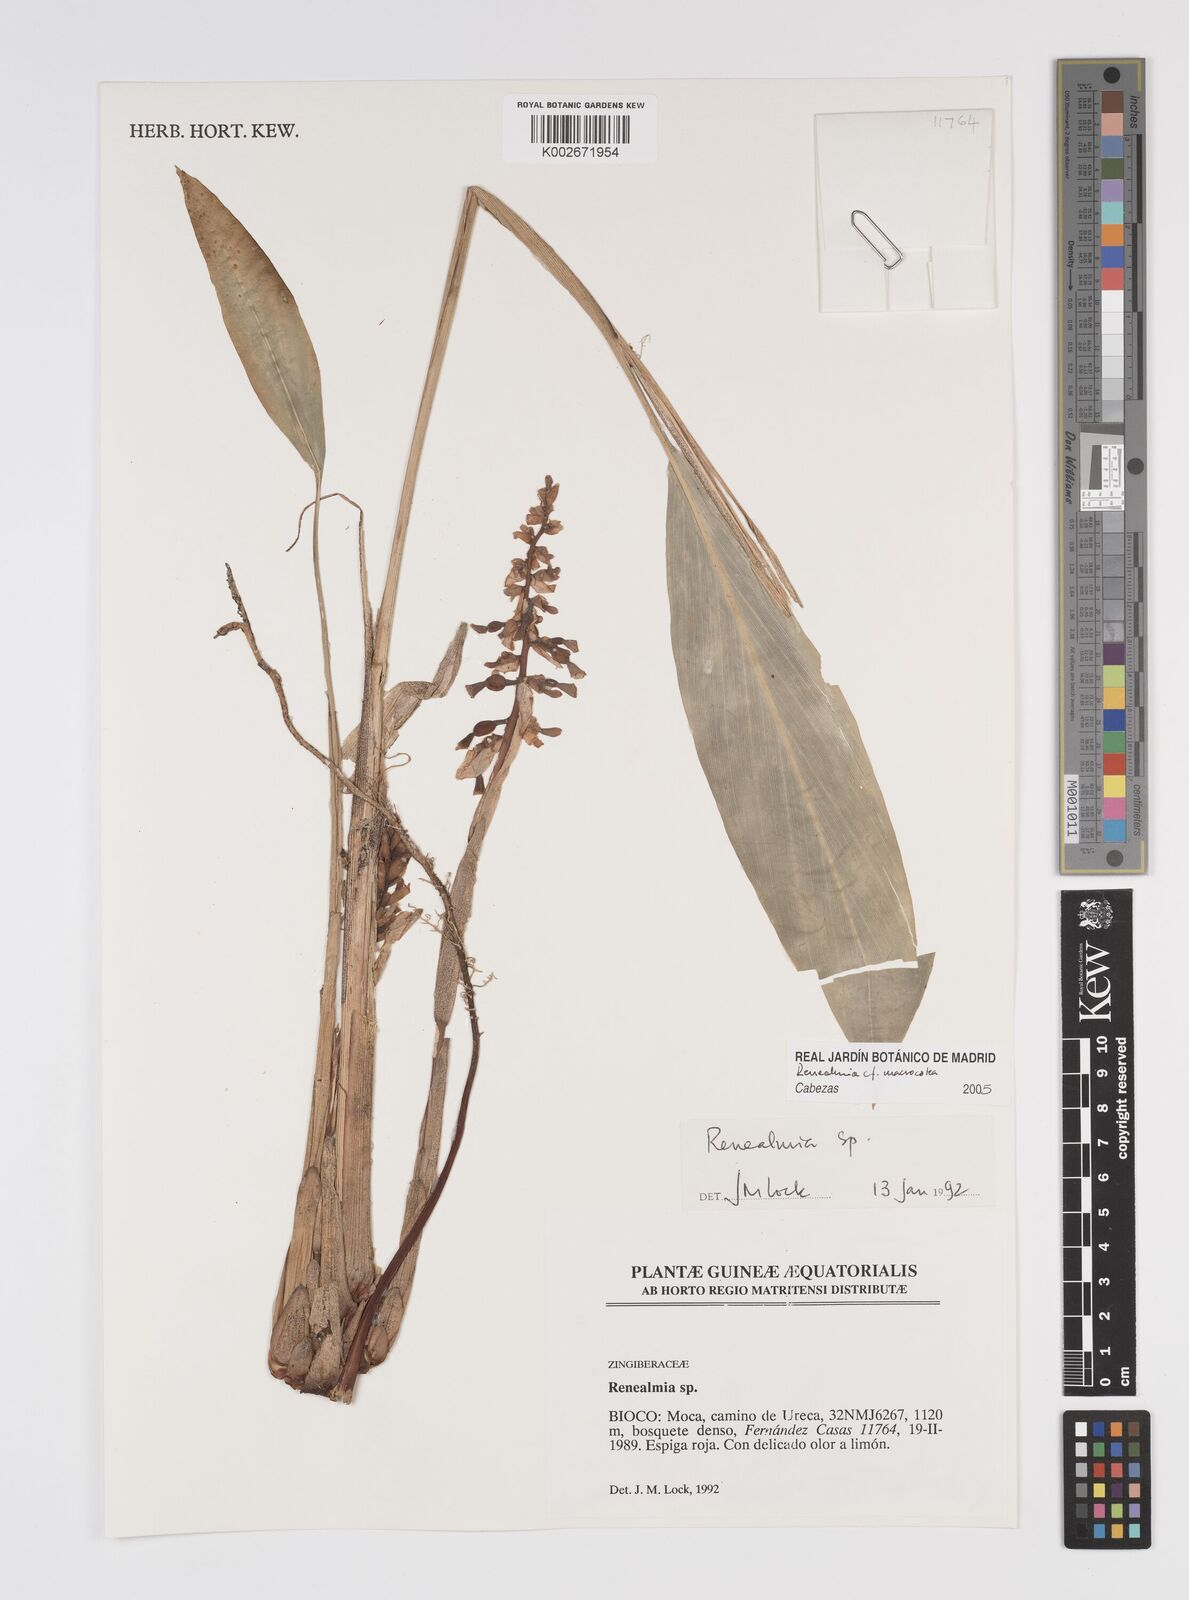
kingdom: Plantae
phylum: Tracheophyta
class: Liliopsida
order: Zingiberales
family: Zingiberaceae
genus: Renealmia
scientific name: Renealmia
